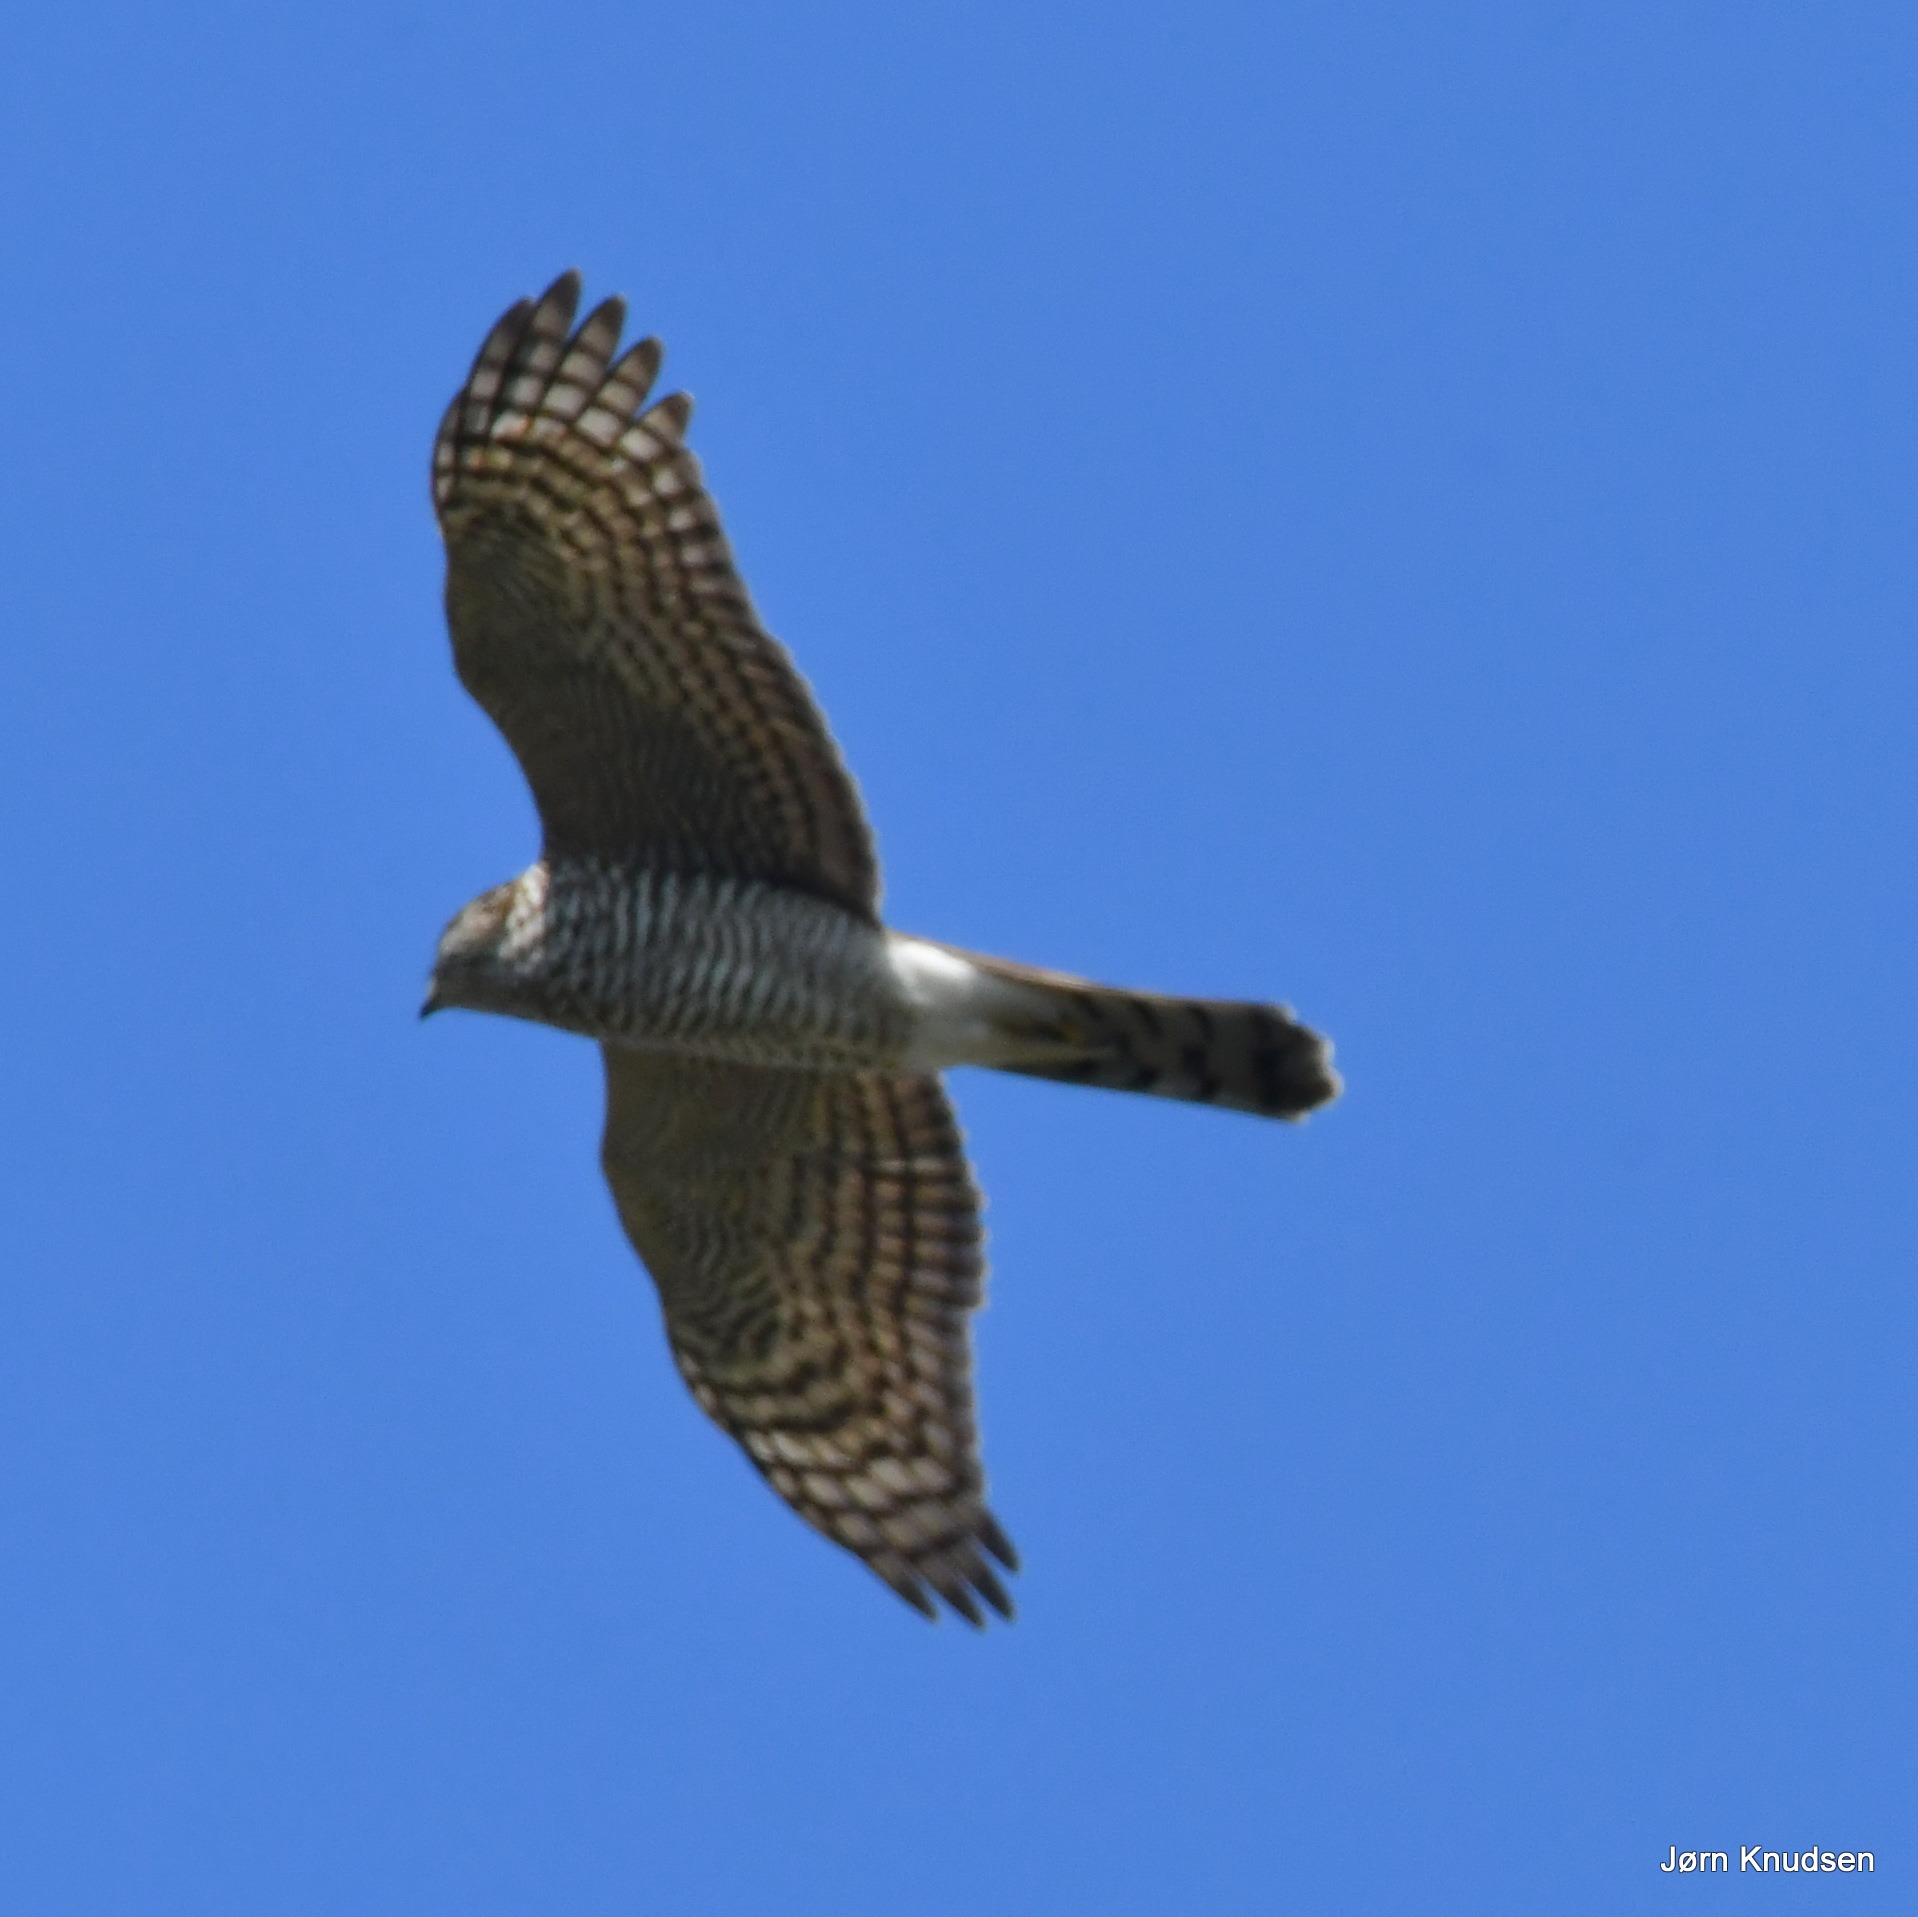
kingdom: Animalia
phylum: Chordata
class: Aves
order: Accipitriformes
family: Accipitridae
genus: Accipiter
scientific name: Accipiter nisus
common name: Spurvehøg
